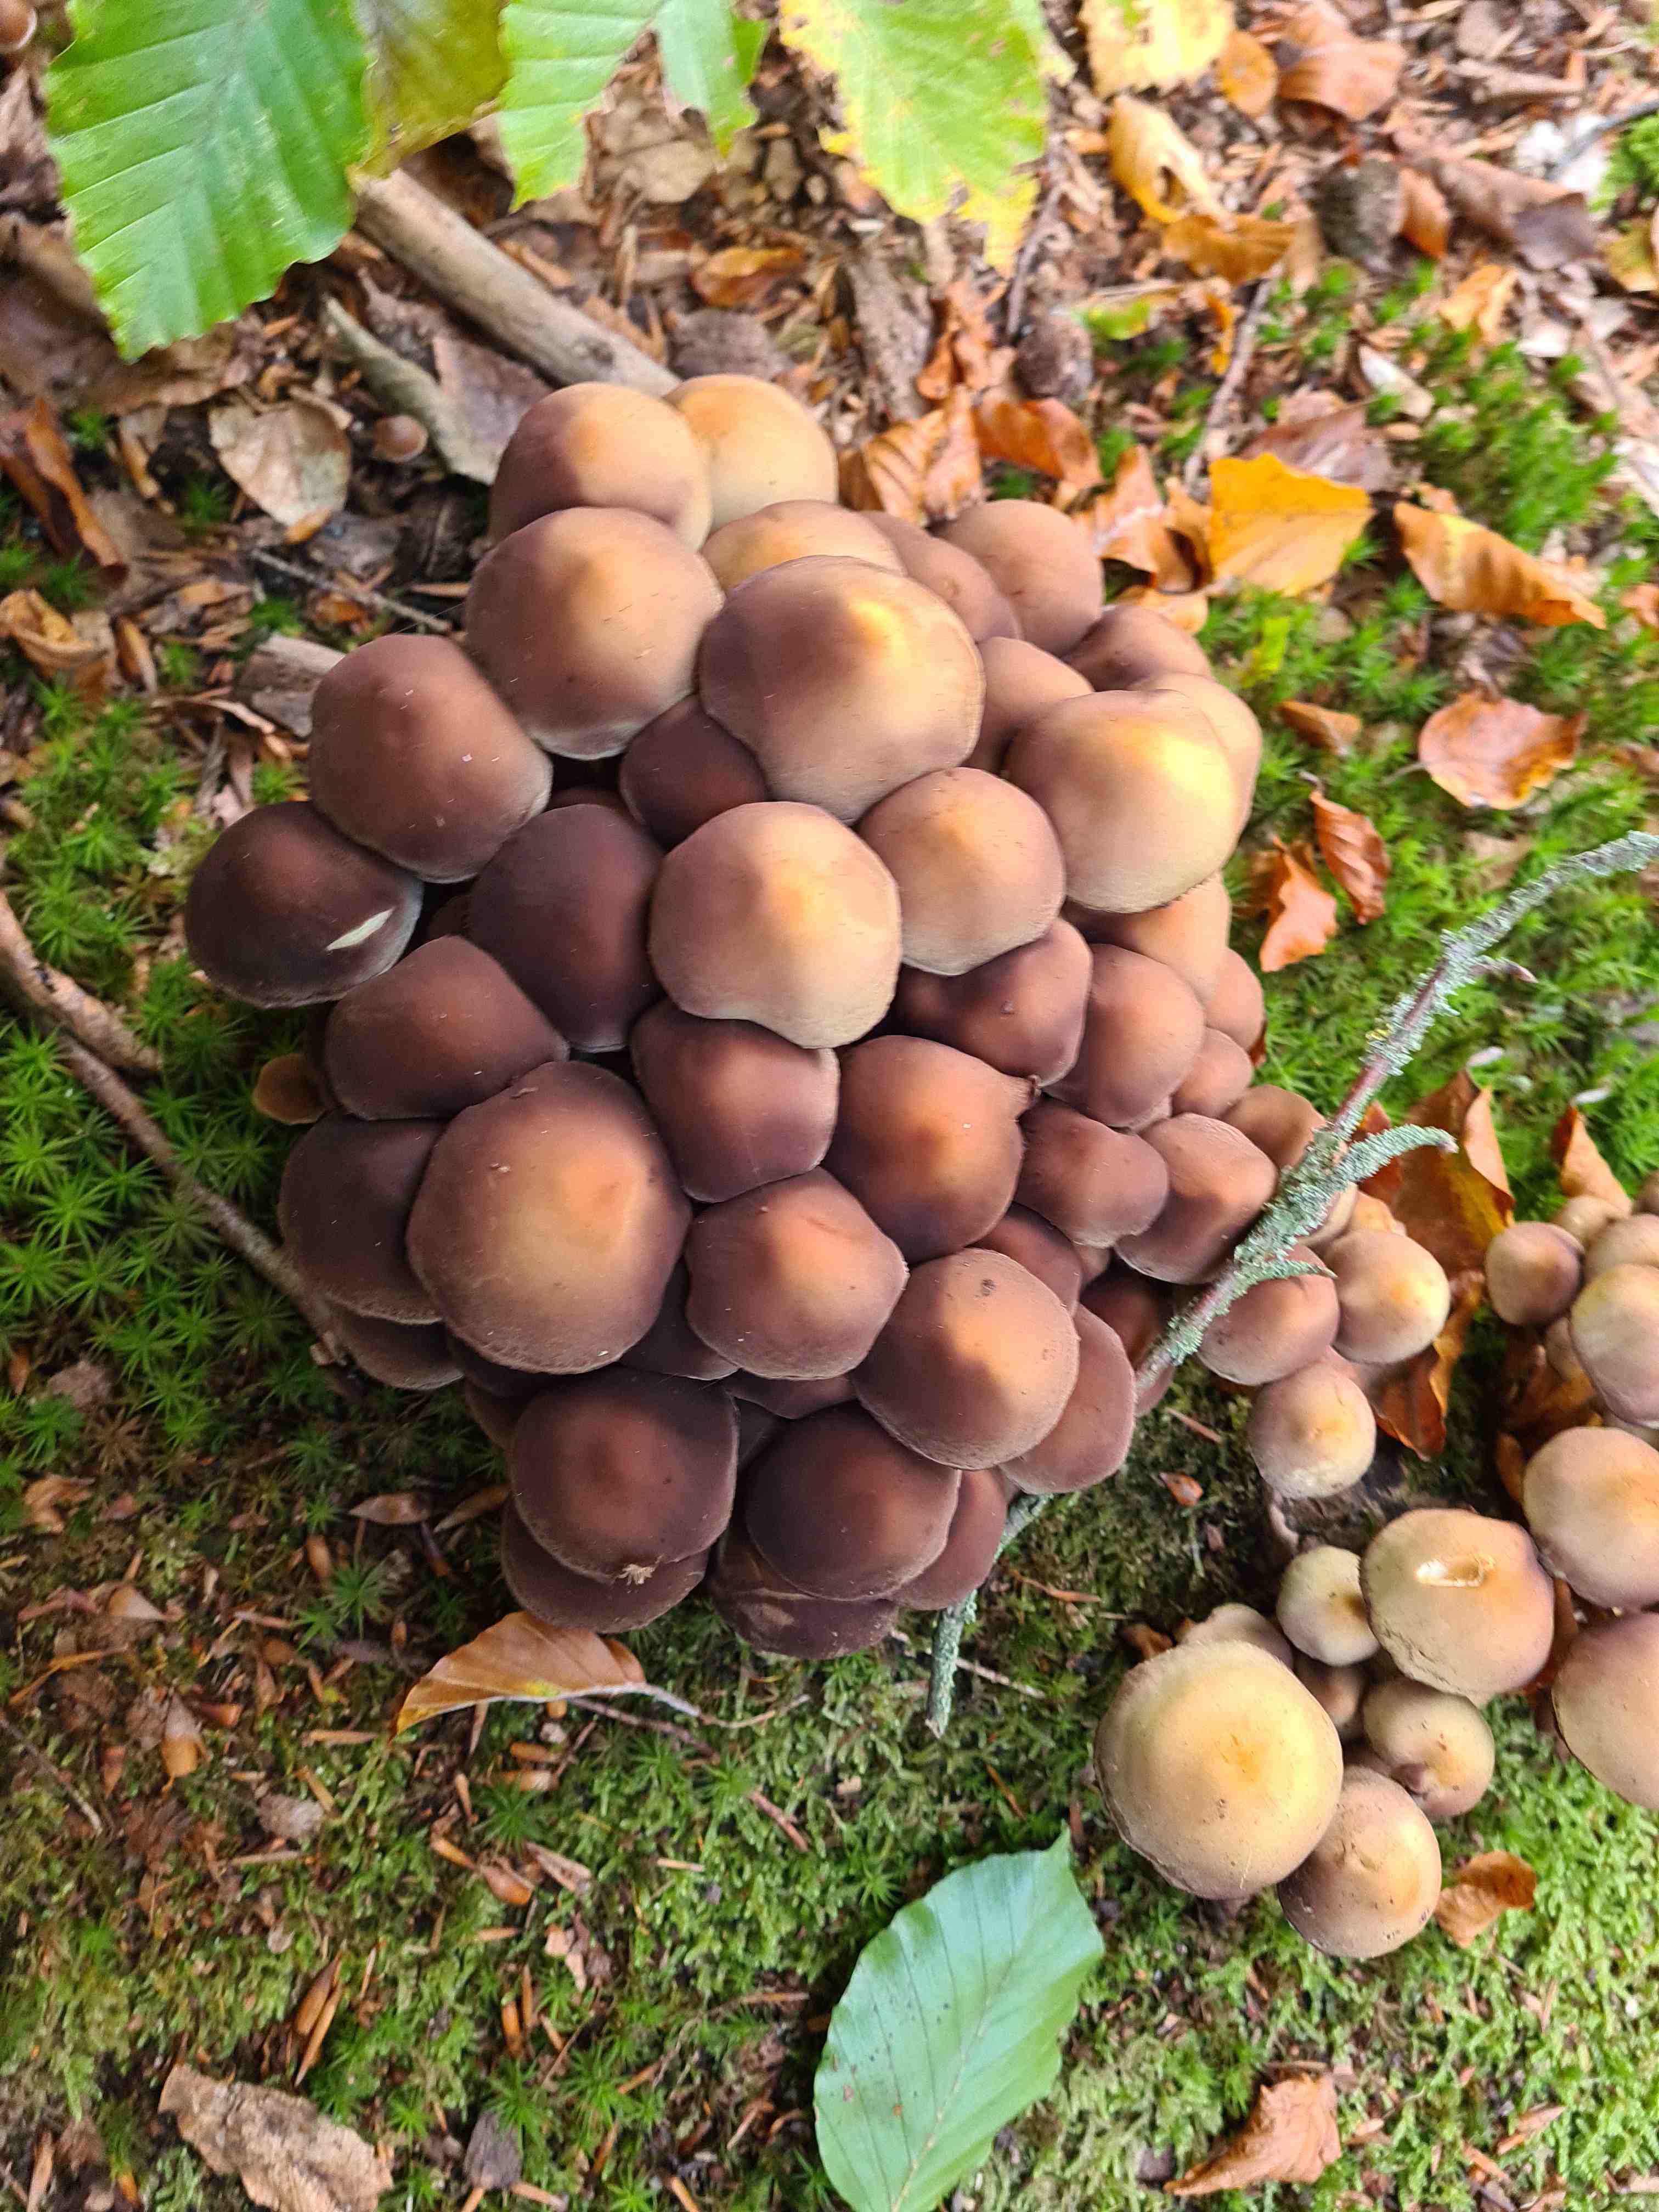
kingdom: Fungi
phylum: Basidiomycota
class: Agaricomycetes
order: Agaricales
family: Strophariaceae
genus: Hypholoma
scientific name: Hypholoma fasciculare
